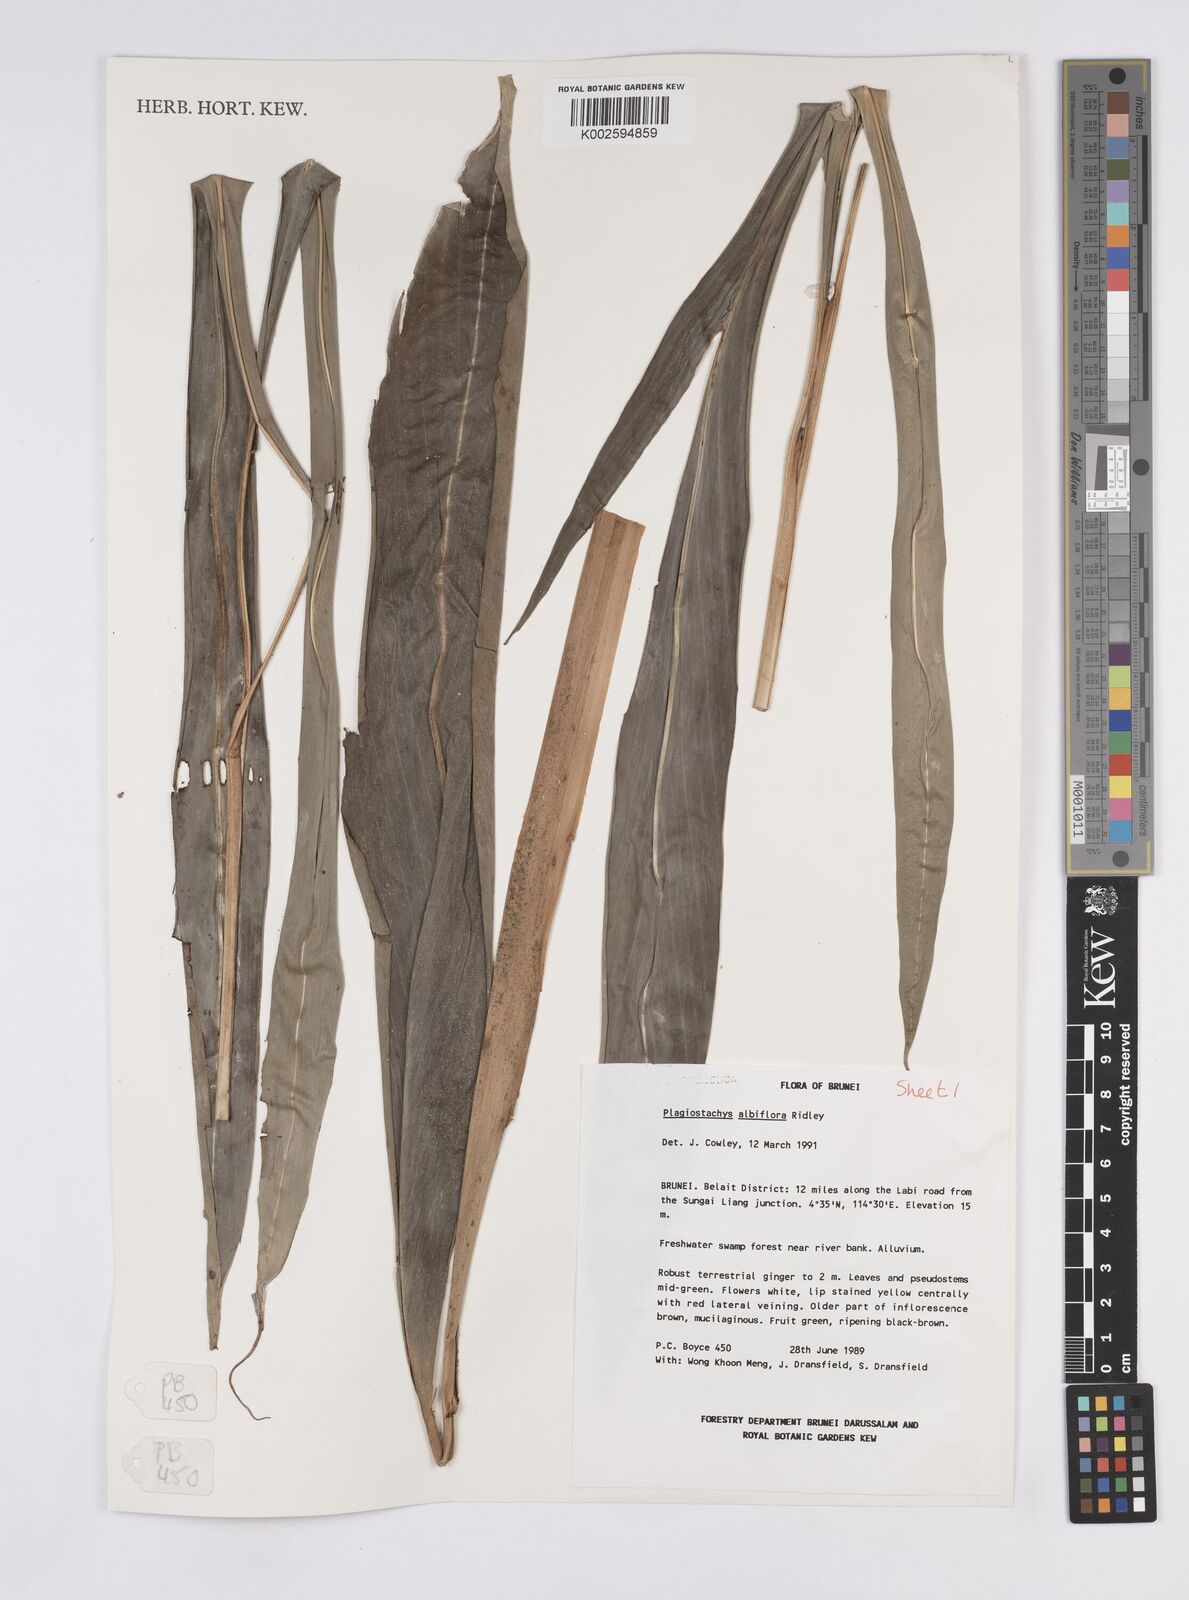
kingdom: Plantae
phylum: Tracheophyta
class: Liliopsida
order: Zingiberales
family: Zingiberaceae
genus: Plagiostachys
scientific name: Plagiostachys albiflora
